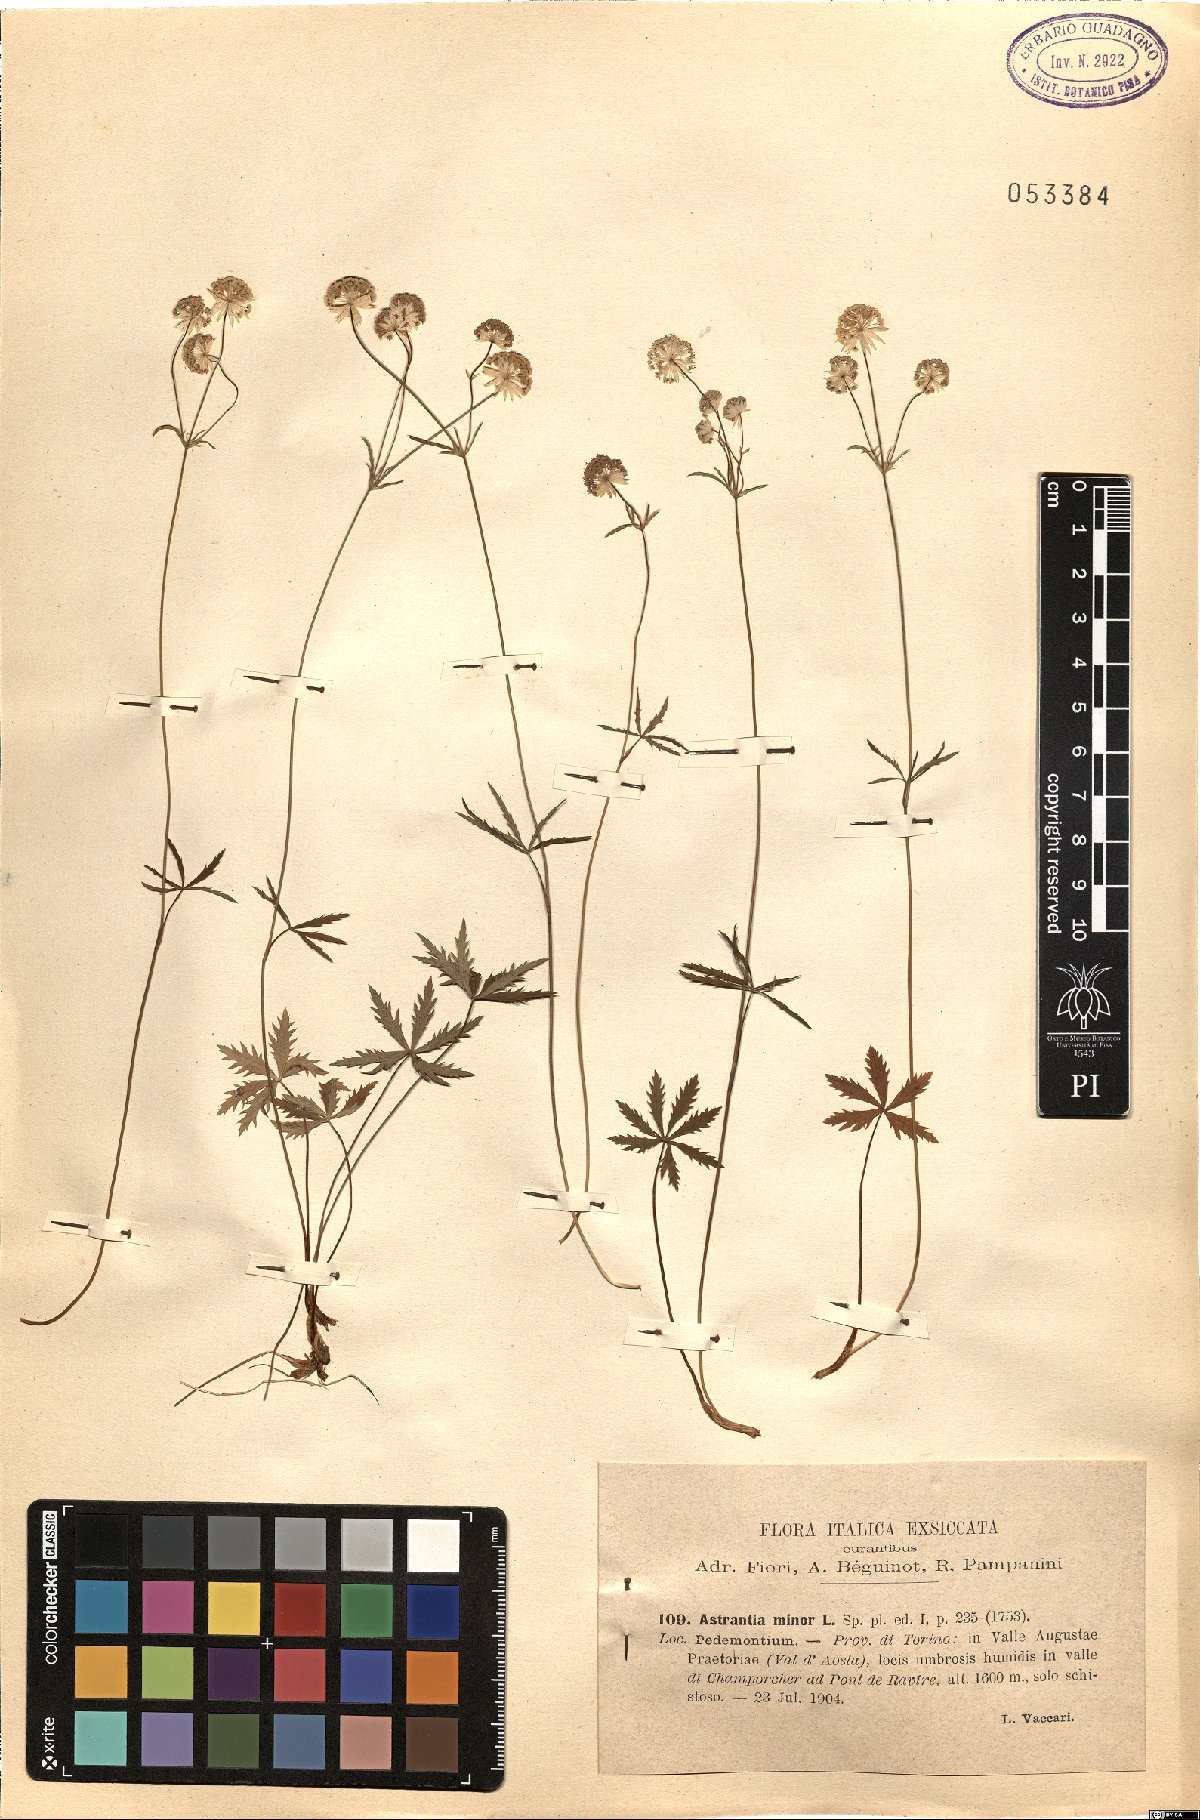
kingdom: Plantae
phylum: Tracheophyta
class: Magnoliopsida
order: Apiales
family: Apiaceae
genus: Astrantia
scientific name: Astrantia minor
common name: Lesser masterwort
